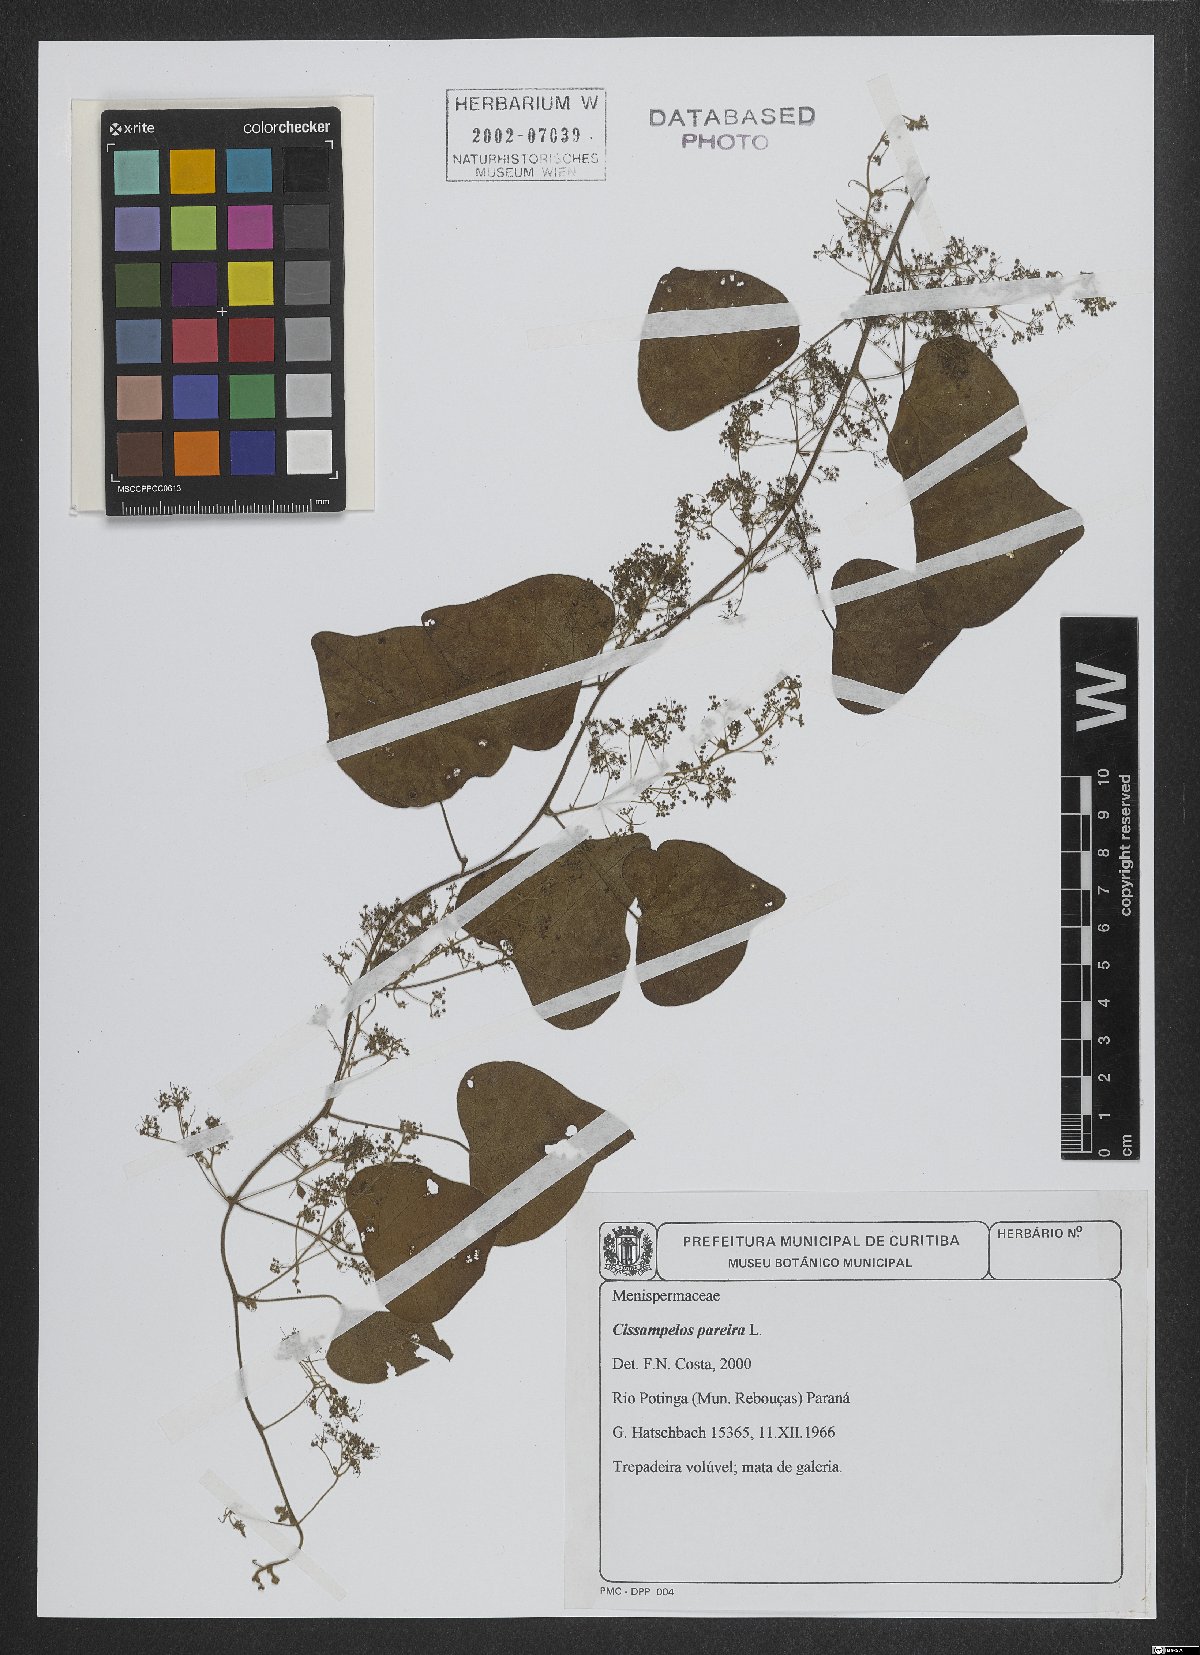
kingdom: Plantae
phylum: Tracheophyta
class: Magnoliopsida
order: Ranunculales
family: Menispermaceae
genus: Cissampelos
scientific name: Cissampelos pareira
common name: Velvetleaf
